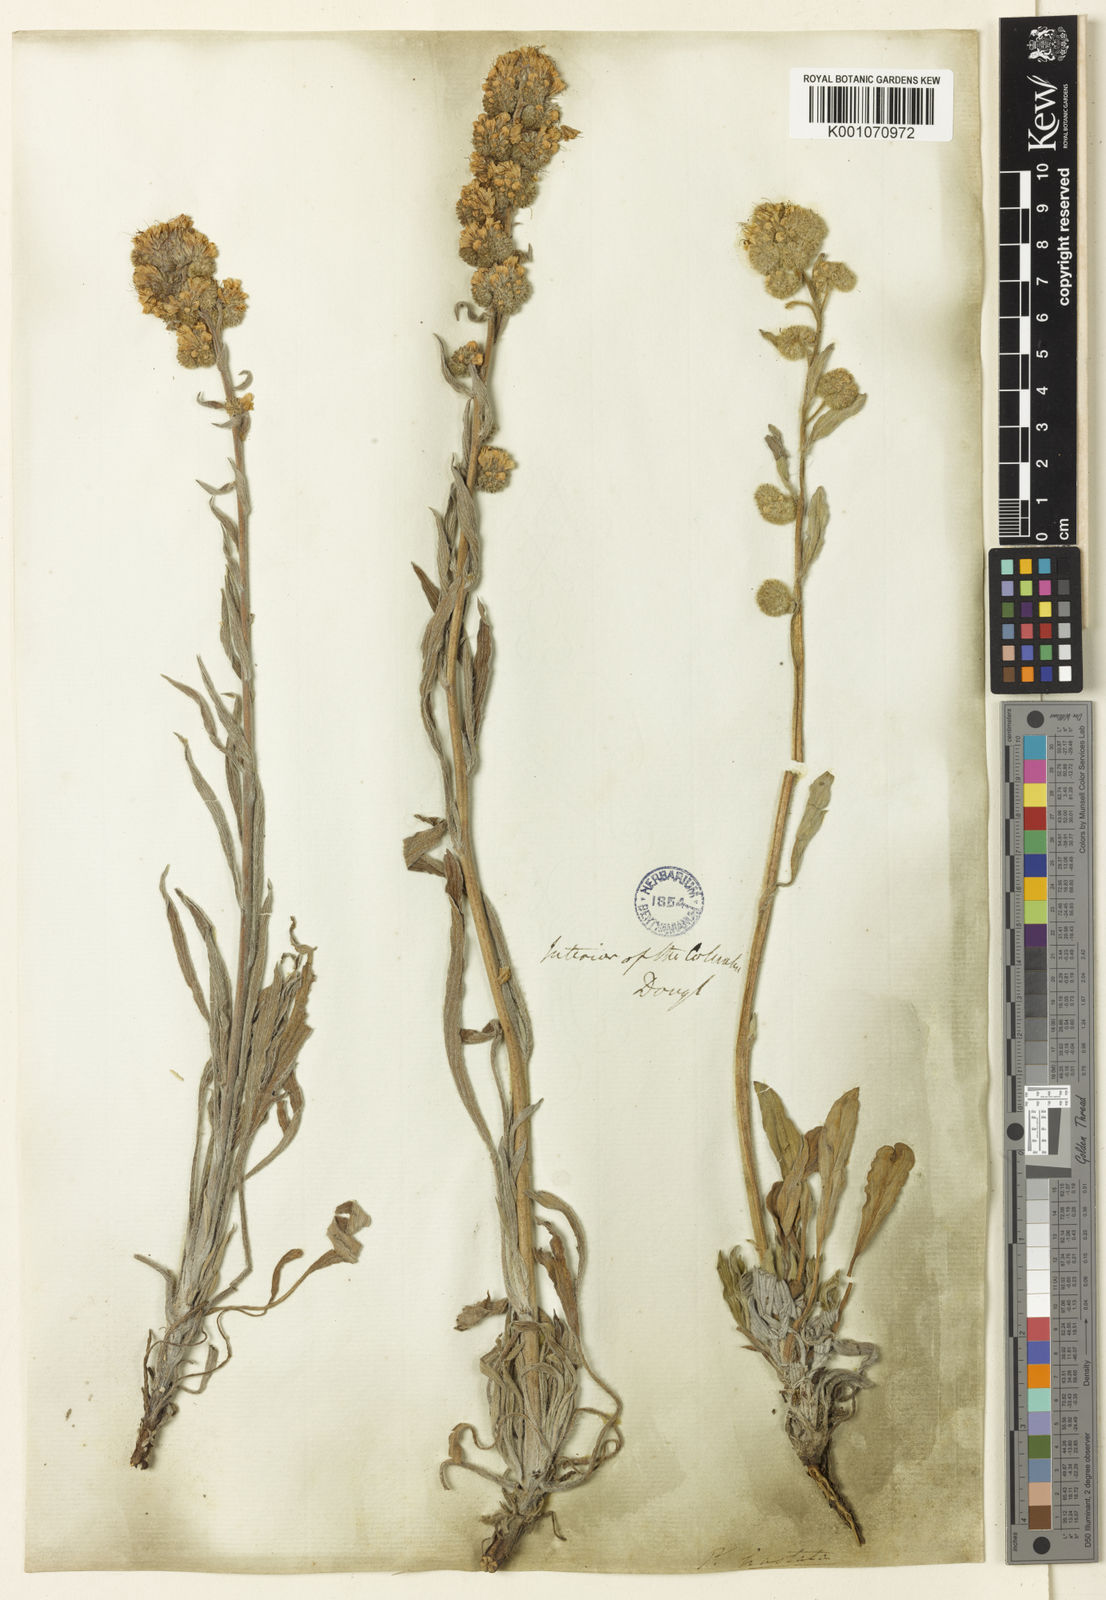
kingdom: Plantae
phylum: Tracheophyta
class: Magnoliopsida
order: Boraginales
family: Hydrophyllaceae
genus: Phacelia
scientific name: Phacelia hastata
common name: Silver-leaved phacelia
